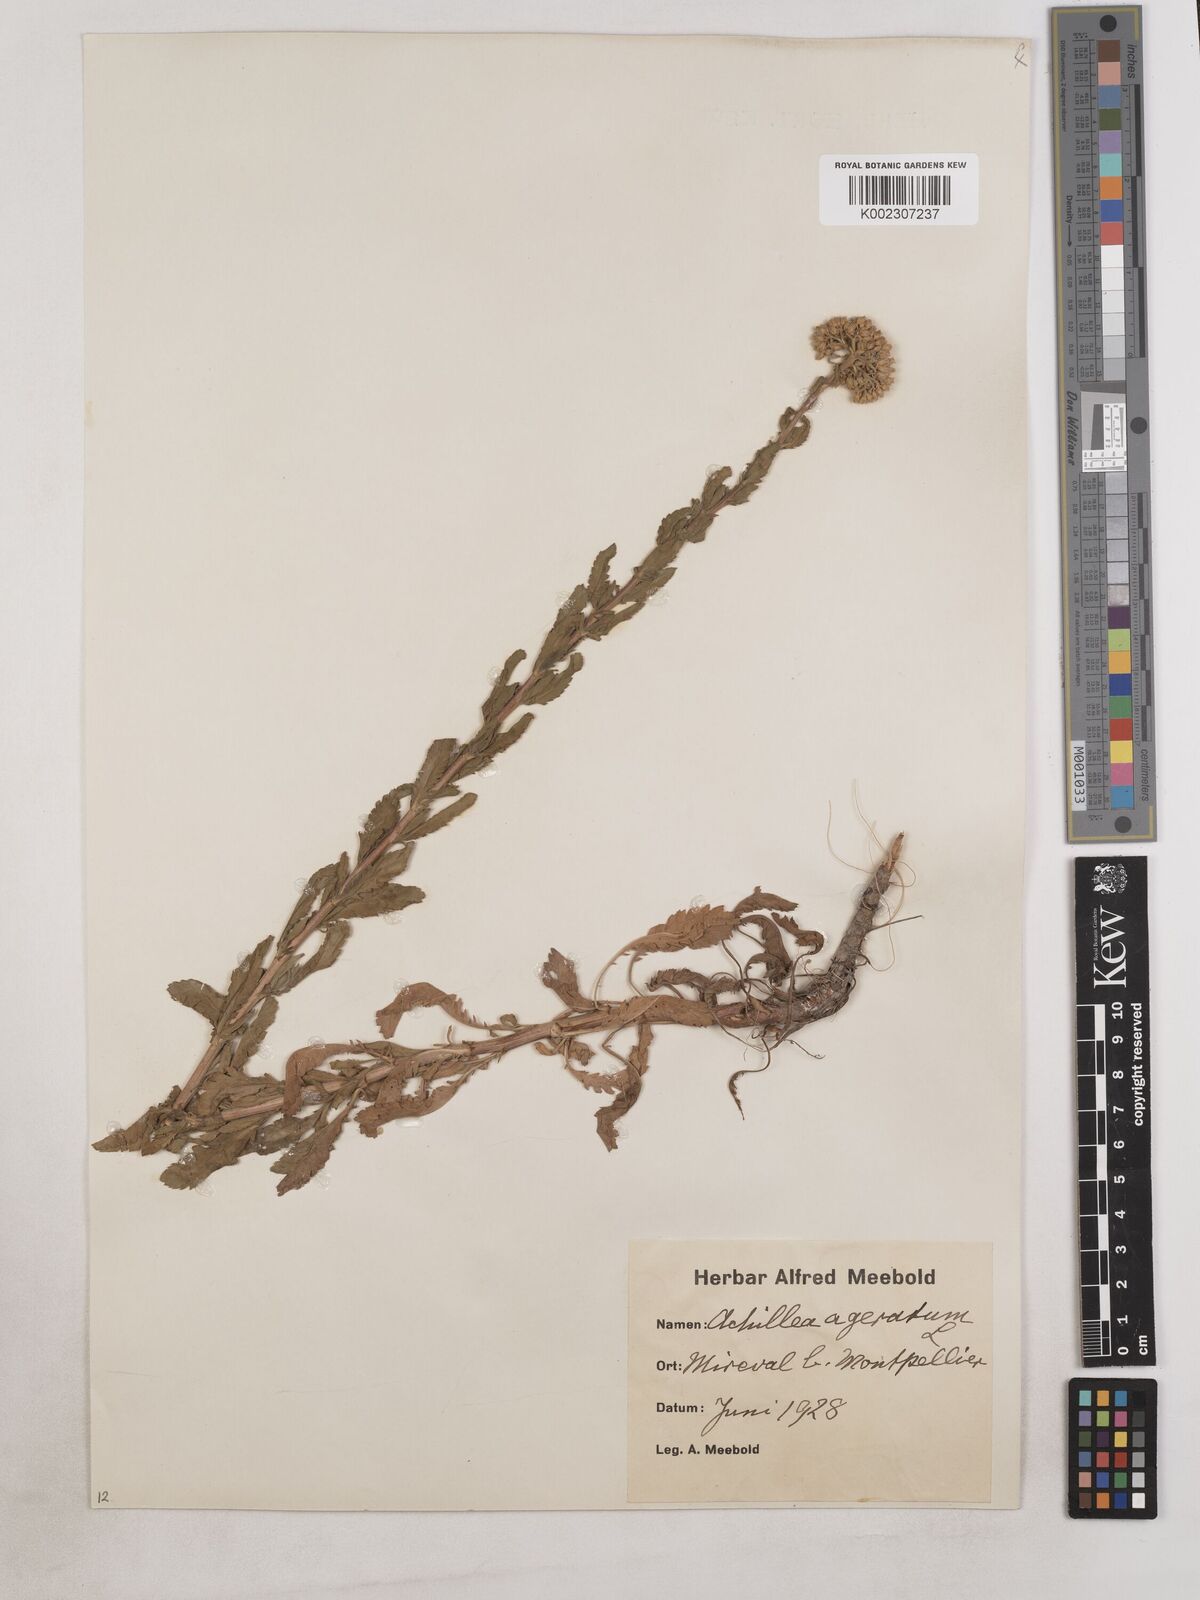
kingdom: Plantae
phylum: Tracheophyta
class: Magnoliopsida
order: Asterales
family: Asteraceae
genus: Achillea
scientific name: Achillea ageratum
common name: Sweet-nancy
